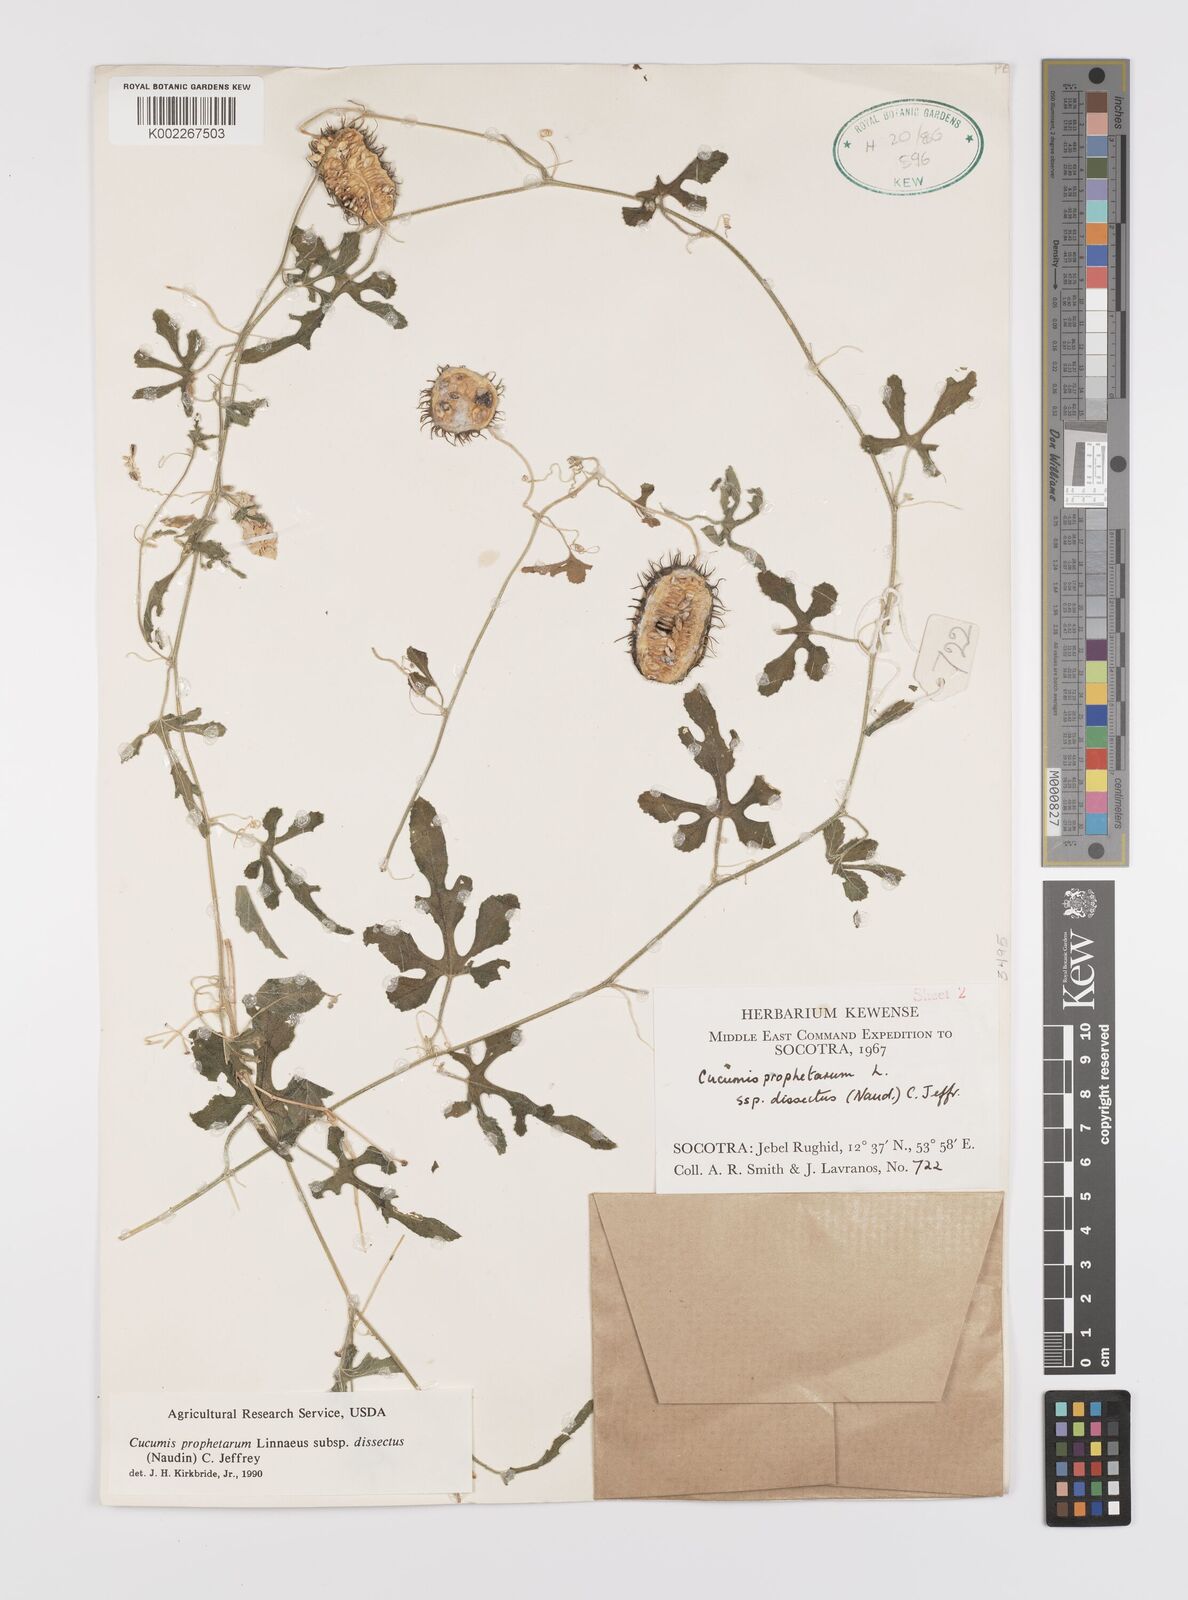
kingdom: Plantae
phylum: Tracheophyta
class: Magnoliopsida
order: Cucurbitales
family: Cucurbitaceae
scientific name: Cucurbitaceae
